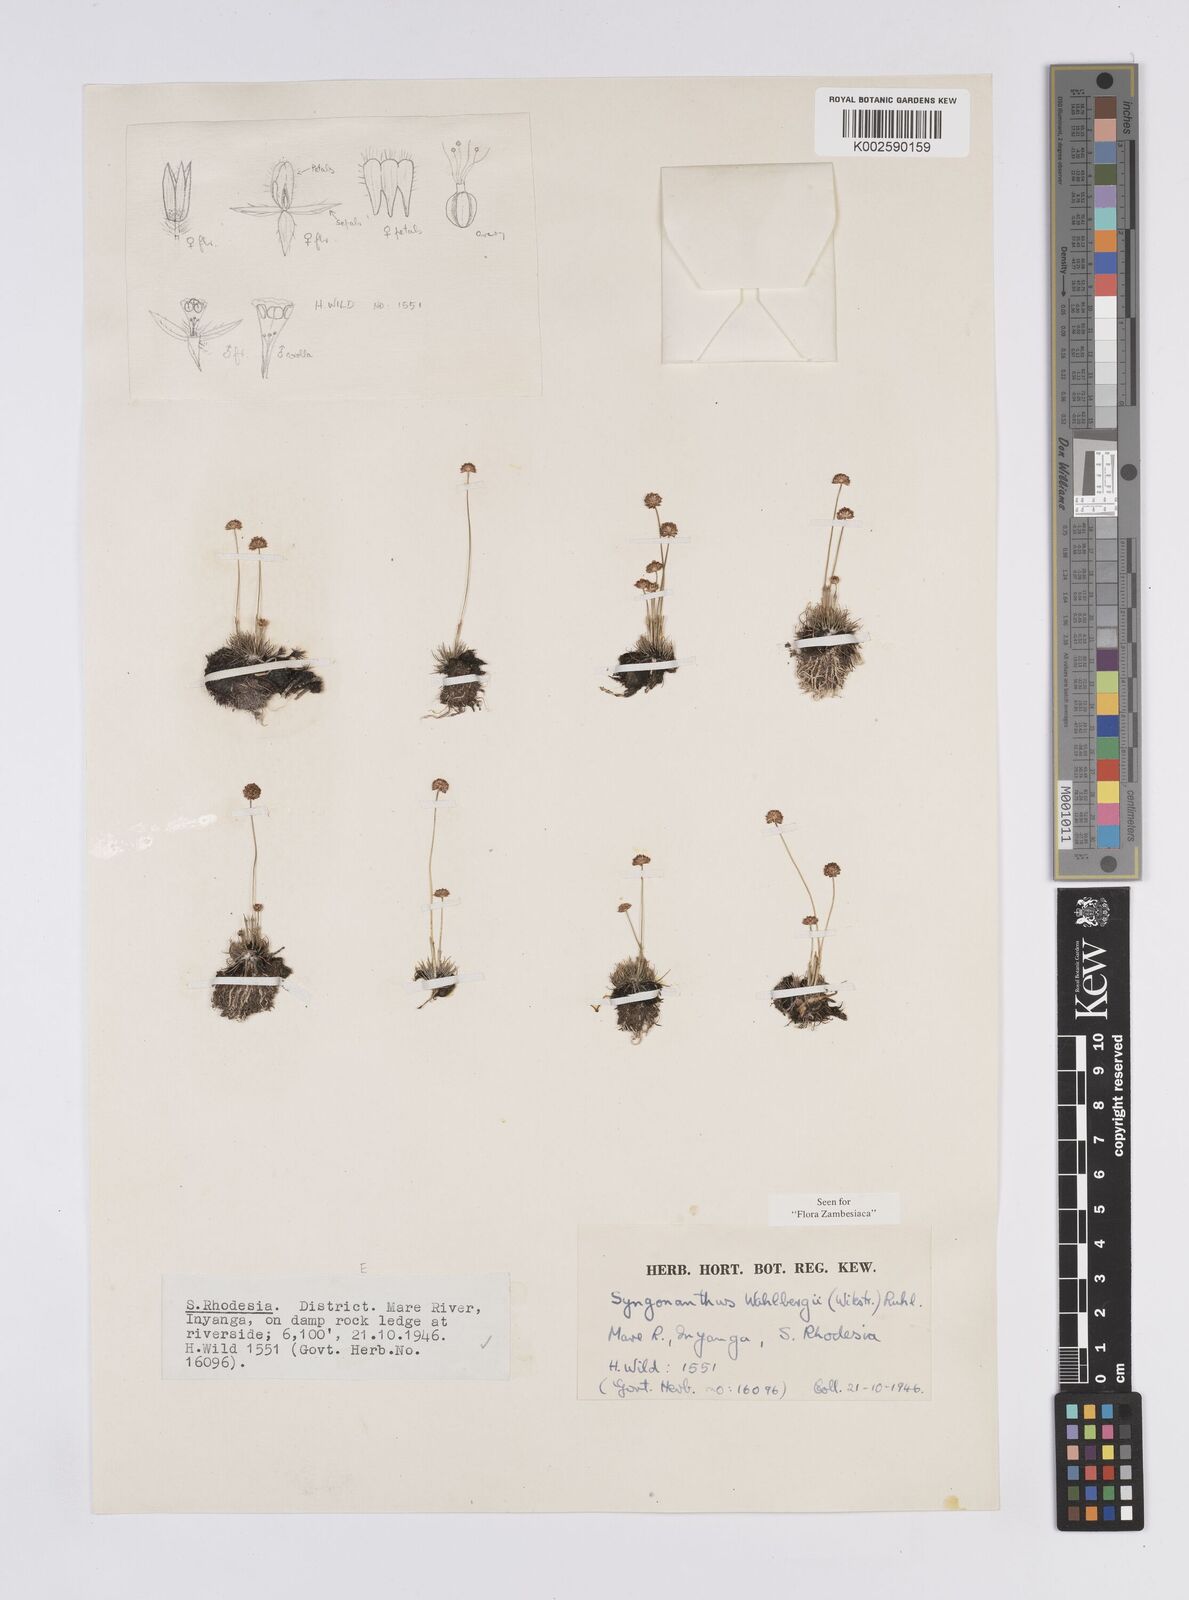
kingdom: Plantae
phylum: Tracheophyta
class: Liliopsida
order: Poales
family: Eriocaulaceae
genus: Syngonanthus
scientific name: Syngonanthus wahlbergii
